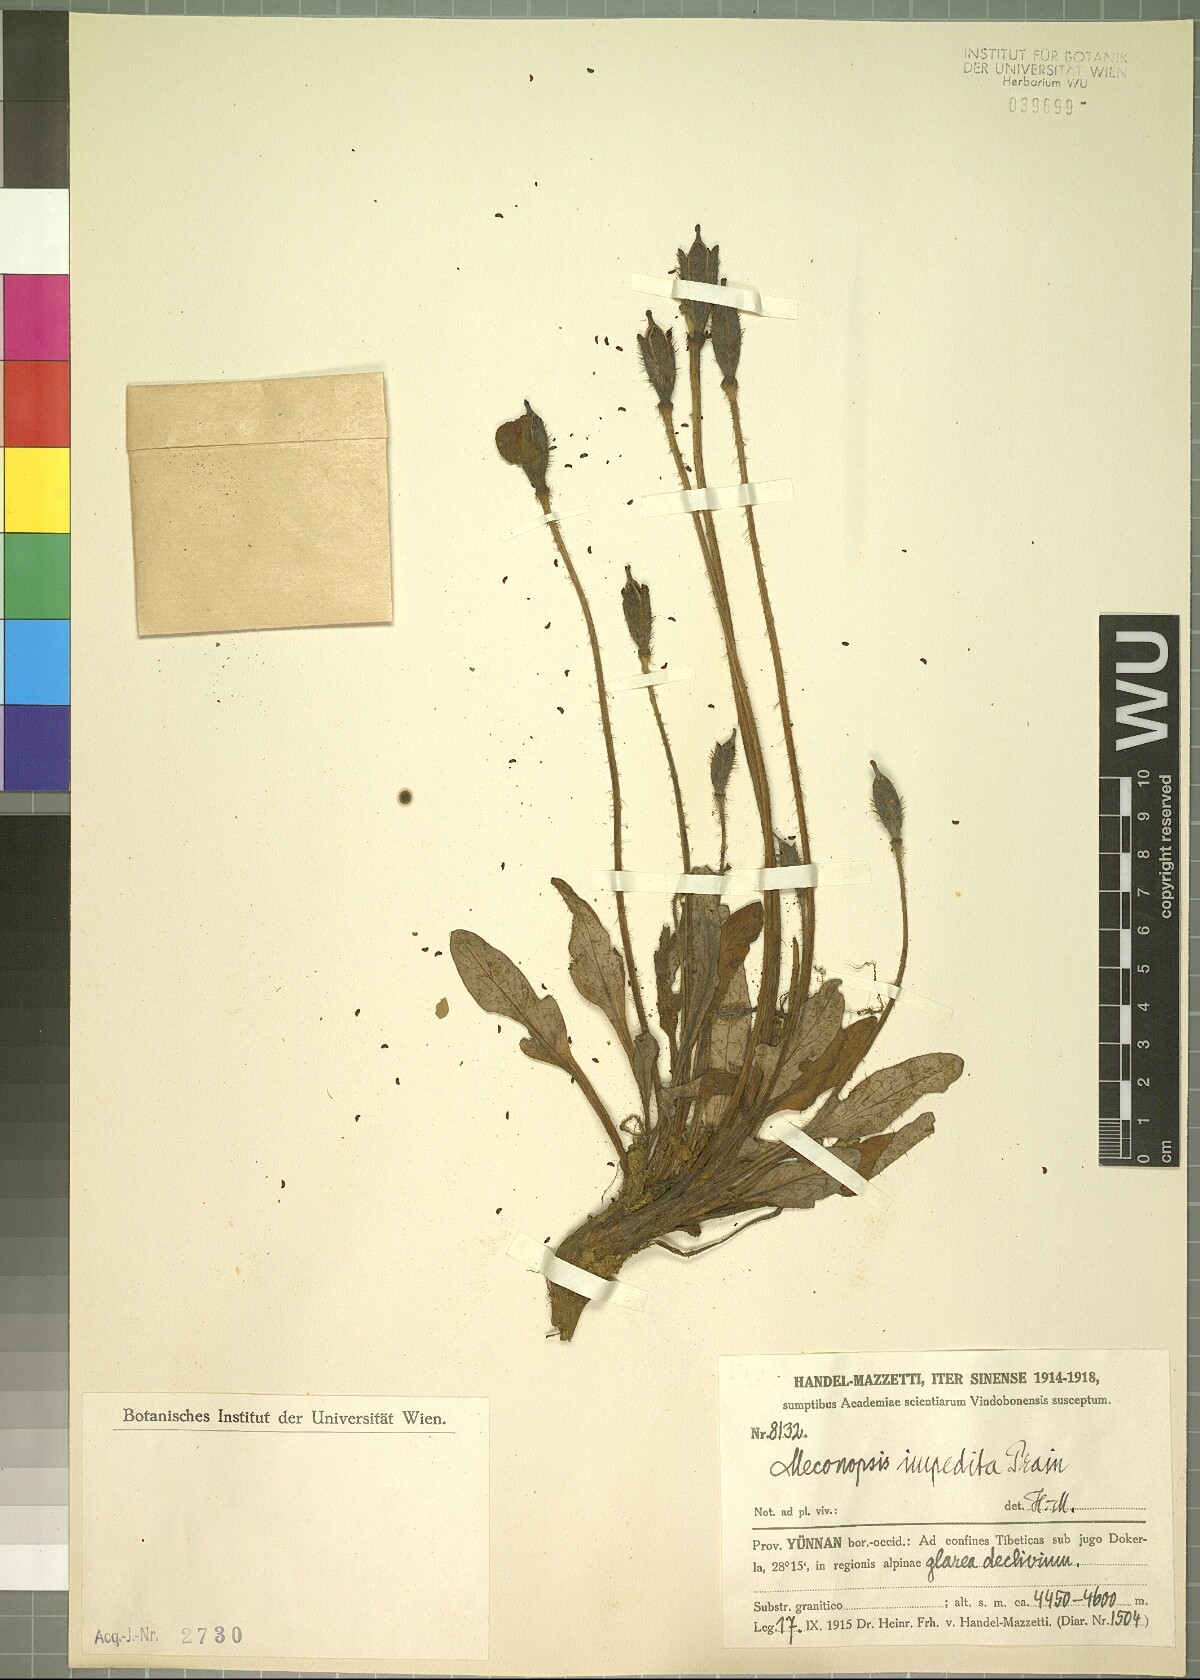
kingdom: Plantae
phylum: Tracheophyta
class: Magnoliopsida
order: Ranunculales
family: Papaveraceae
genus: Meconopsis
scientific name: Meconopsis impedita
